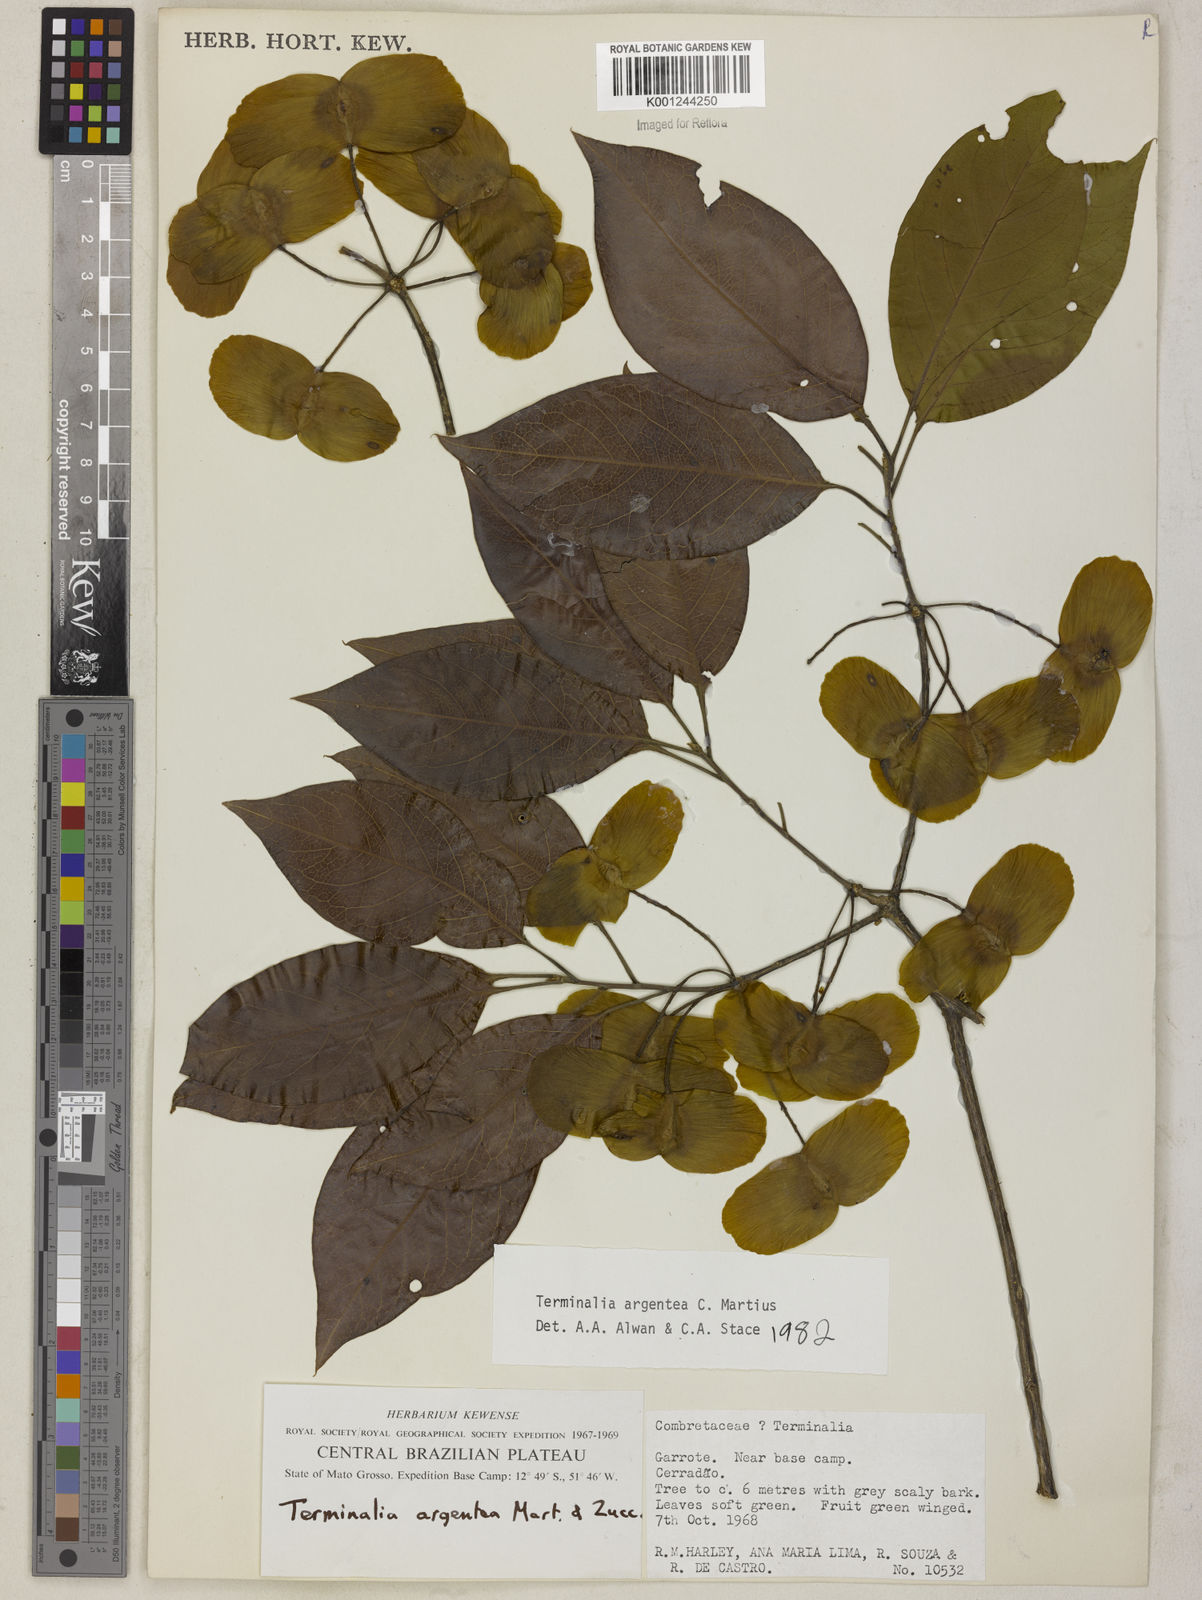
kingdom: Plantae
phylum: Tracheophyta
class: Magnoliopsida
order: Myrtales
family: Combretaceae
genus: Terminalia
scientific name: Terminalia argentea
